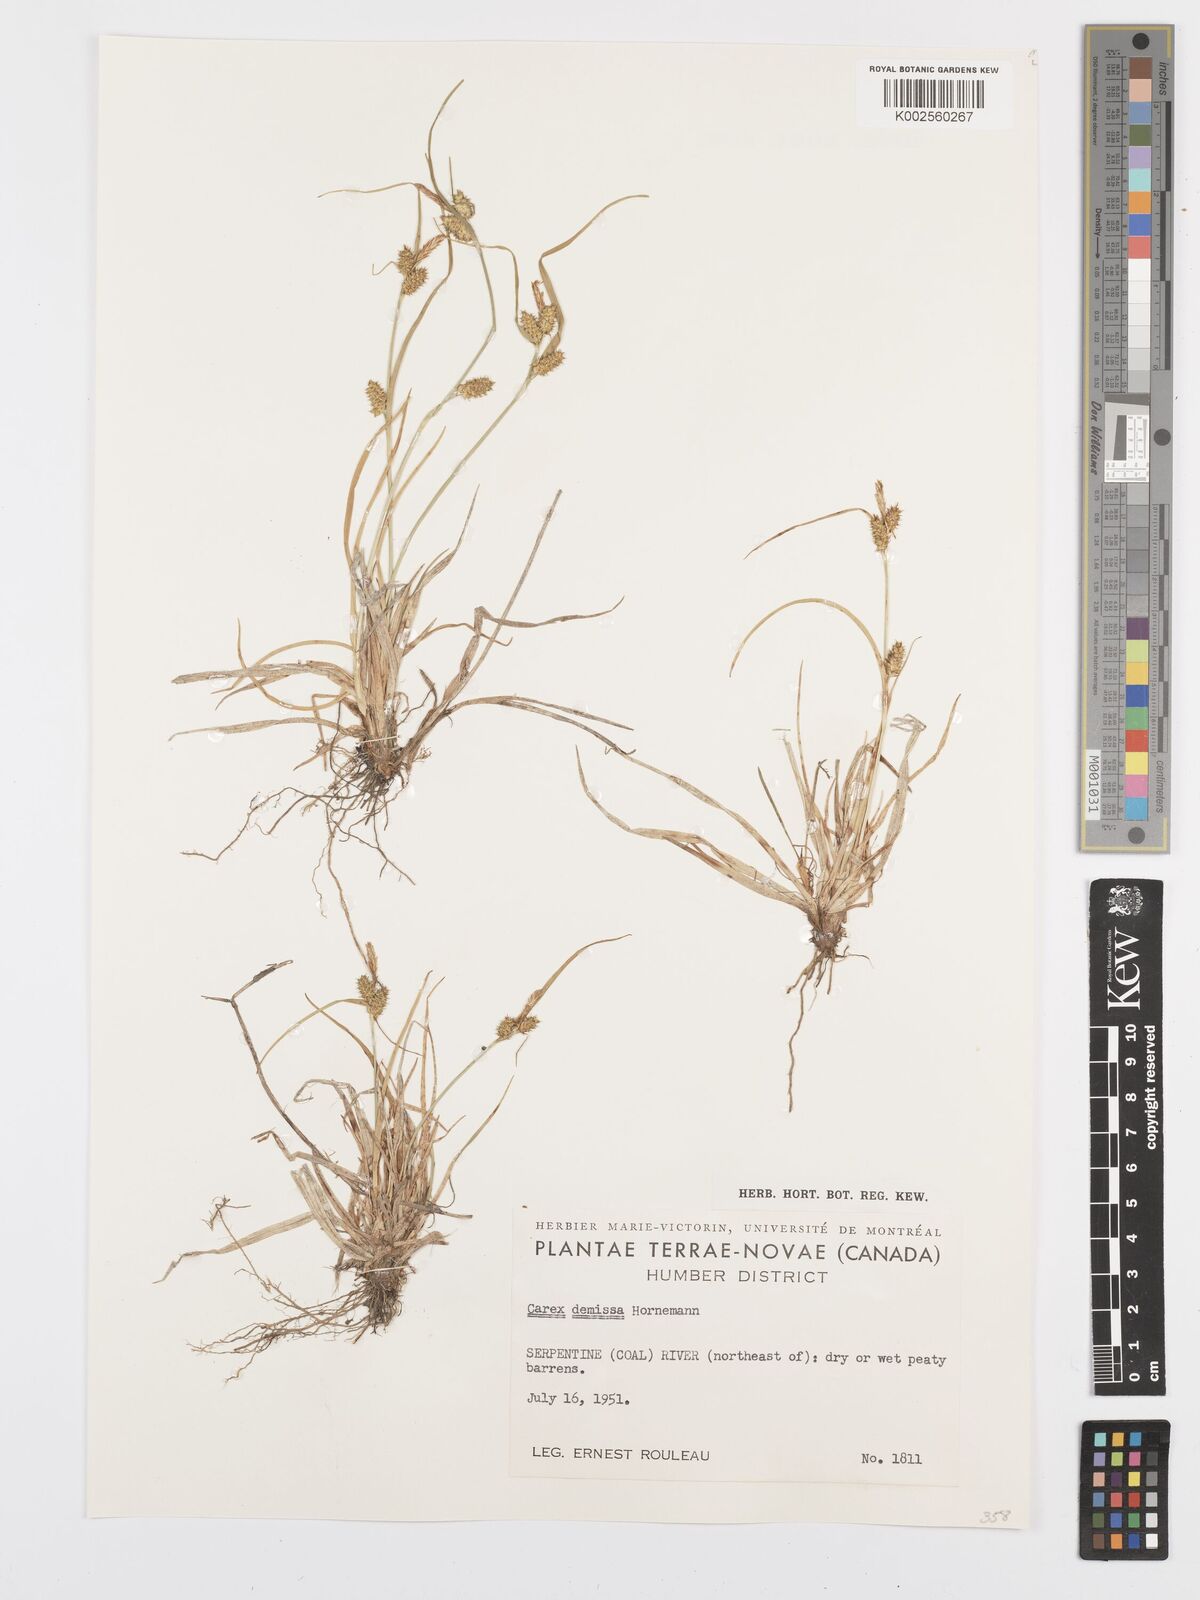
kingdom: Plantae
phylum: Tracheophyta
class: Liliopsida
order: Poales
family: Cyperaceae
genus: Carex
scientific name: Carex flava
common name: Large yellow-sedge
